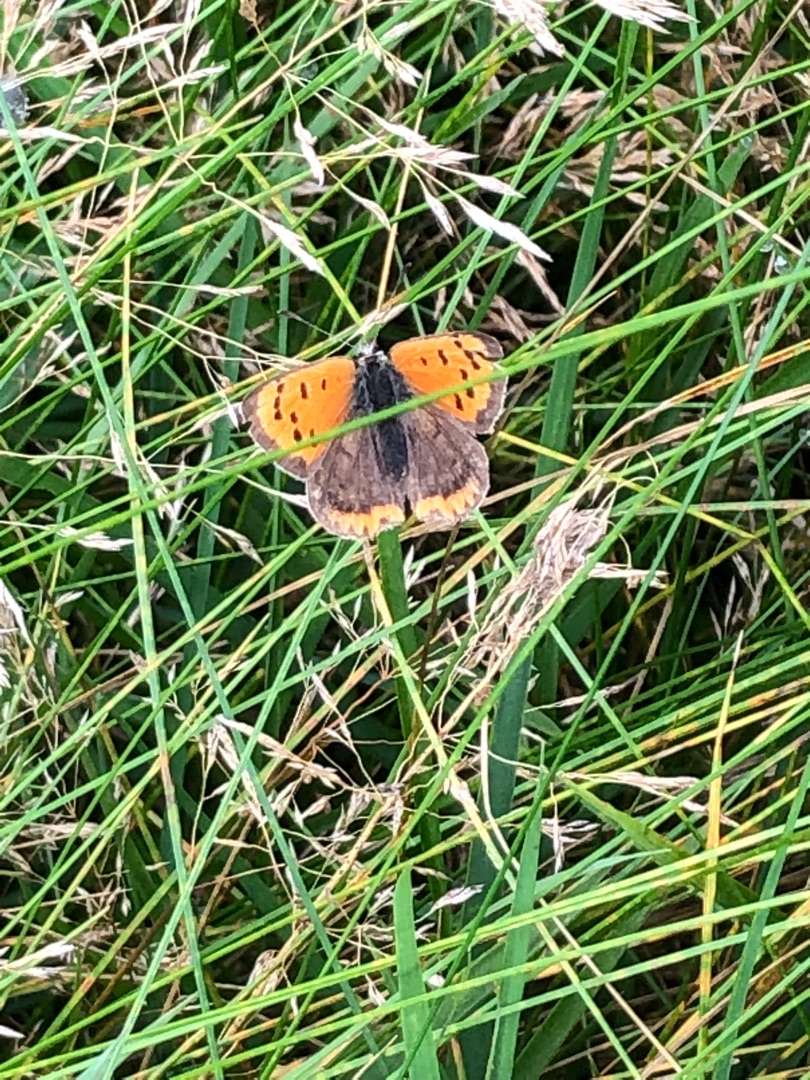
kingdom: Animalia
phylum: Arthropoda
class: Insecta
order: Lepidoptera
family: Lycaenidae
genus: Lycaena
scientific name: Lycaena phlaeas
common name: Lille ildfugl
